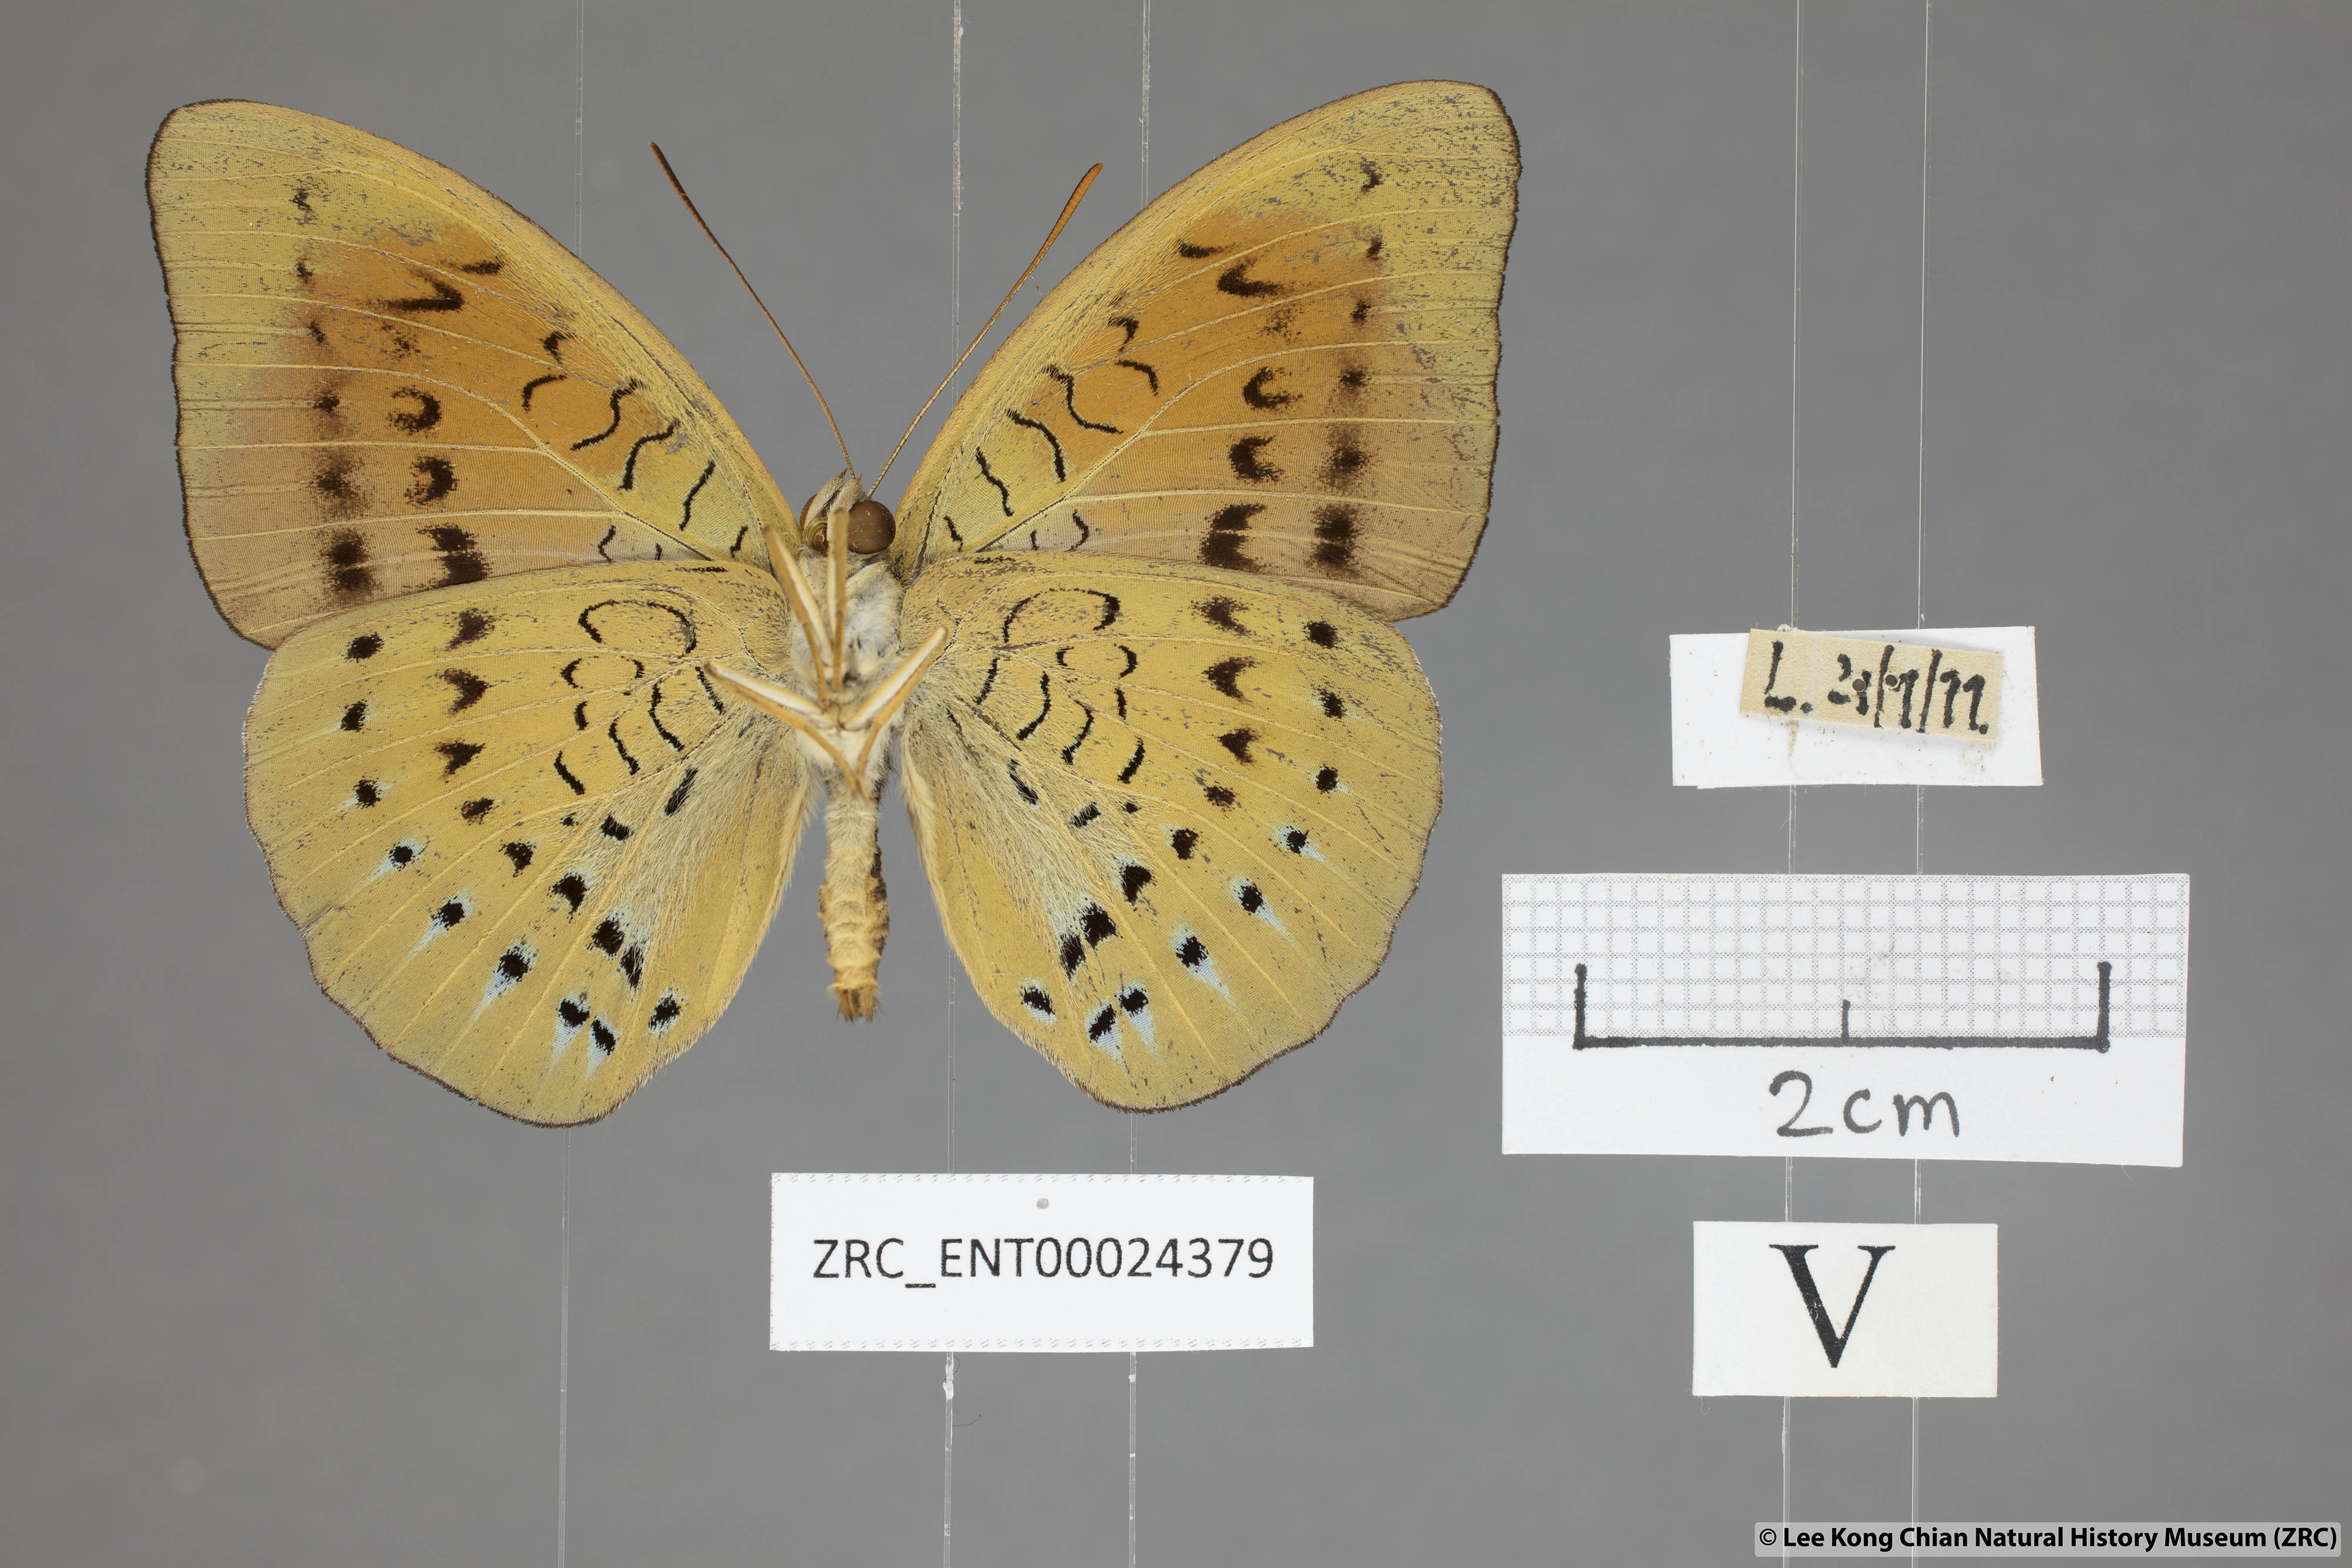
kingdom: Animalia
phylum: Arthropoda
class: Insecta
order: Lepidoptera
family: Nymphalidae
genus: Tanaecia
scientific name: Tanaecia julii
